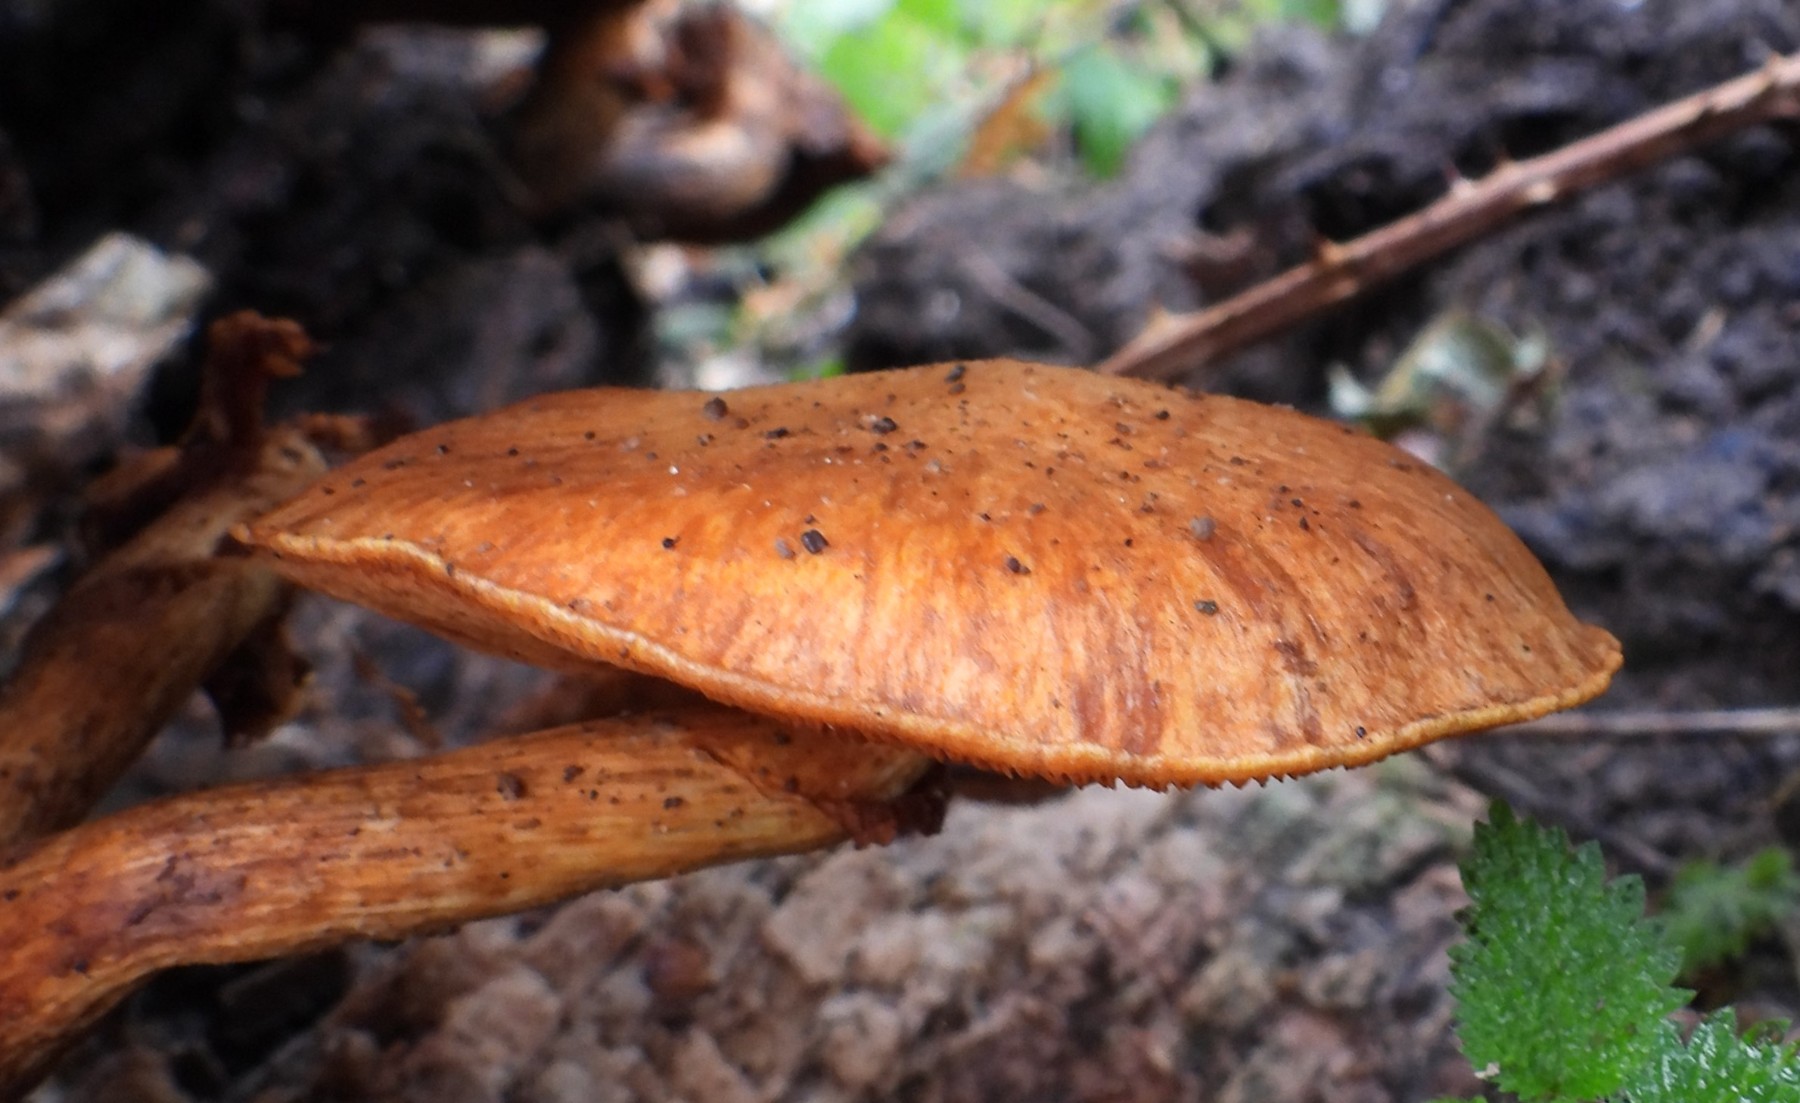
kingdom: Fungi
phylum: Basidiomycota
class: Agaricomycetes
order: Agaricales
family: Hymenogastraceae
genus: Gymnopilus
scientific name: Gymnopilus spectabilis
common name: fibret flammehat
